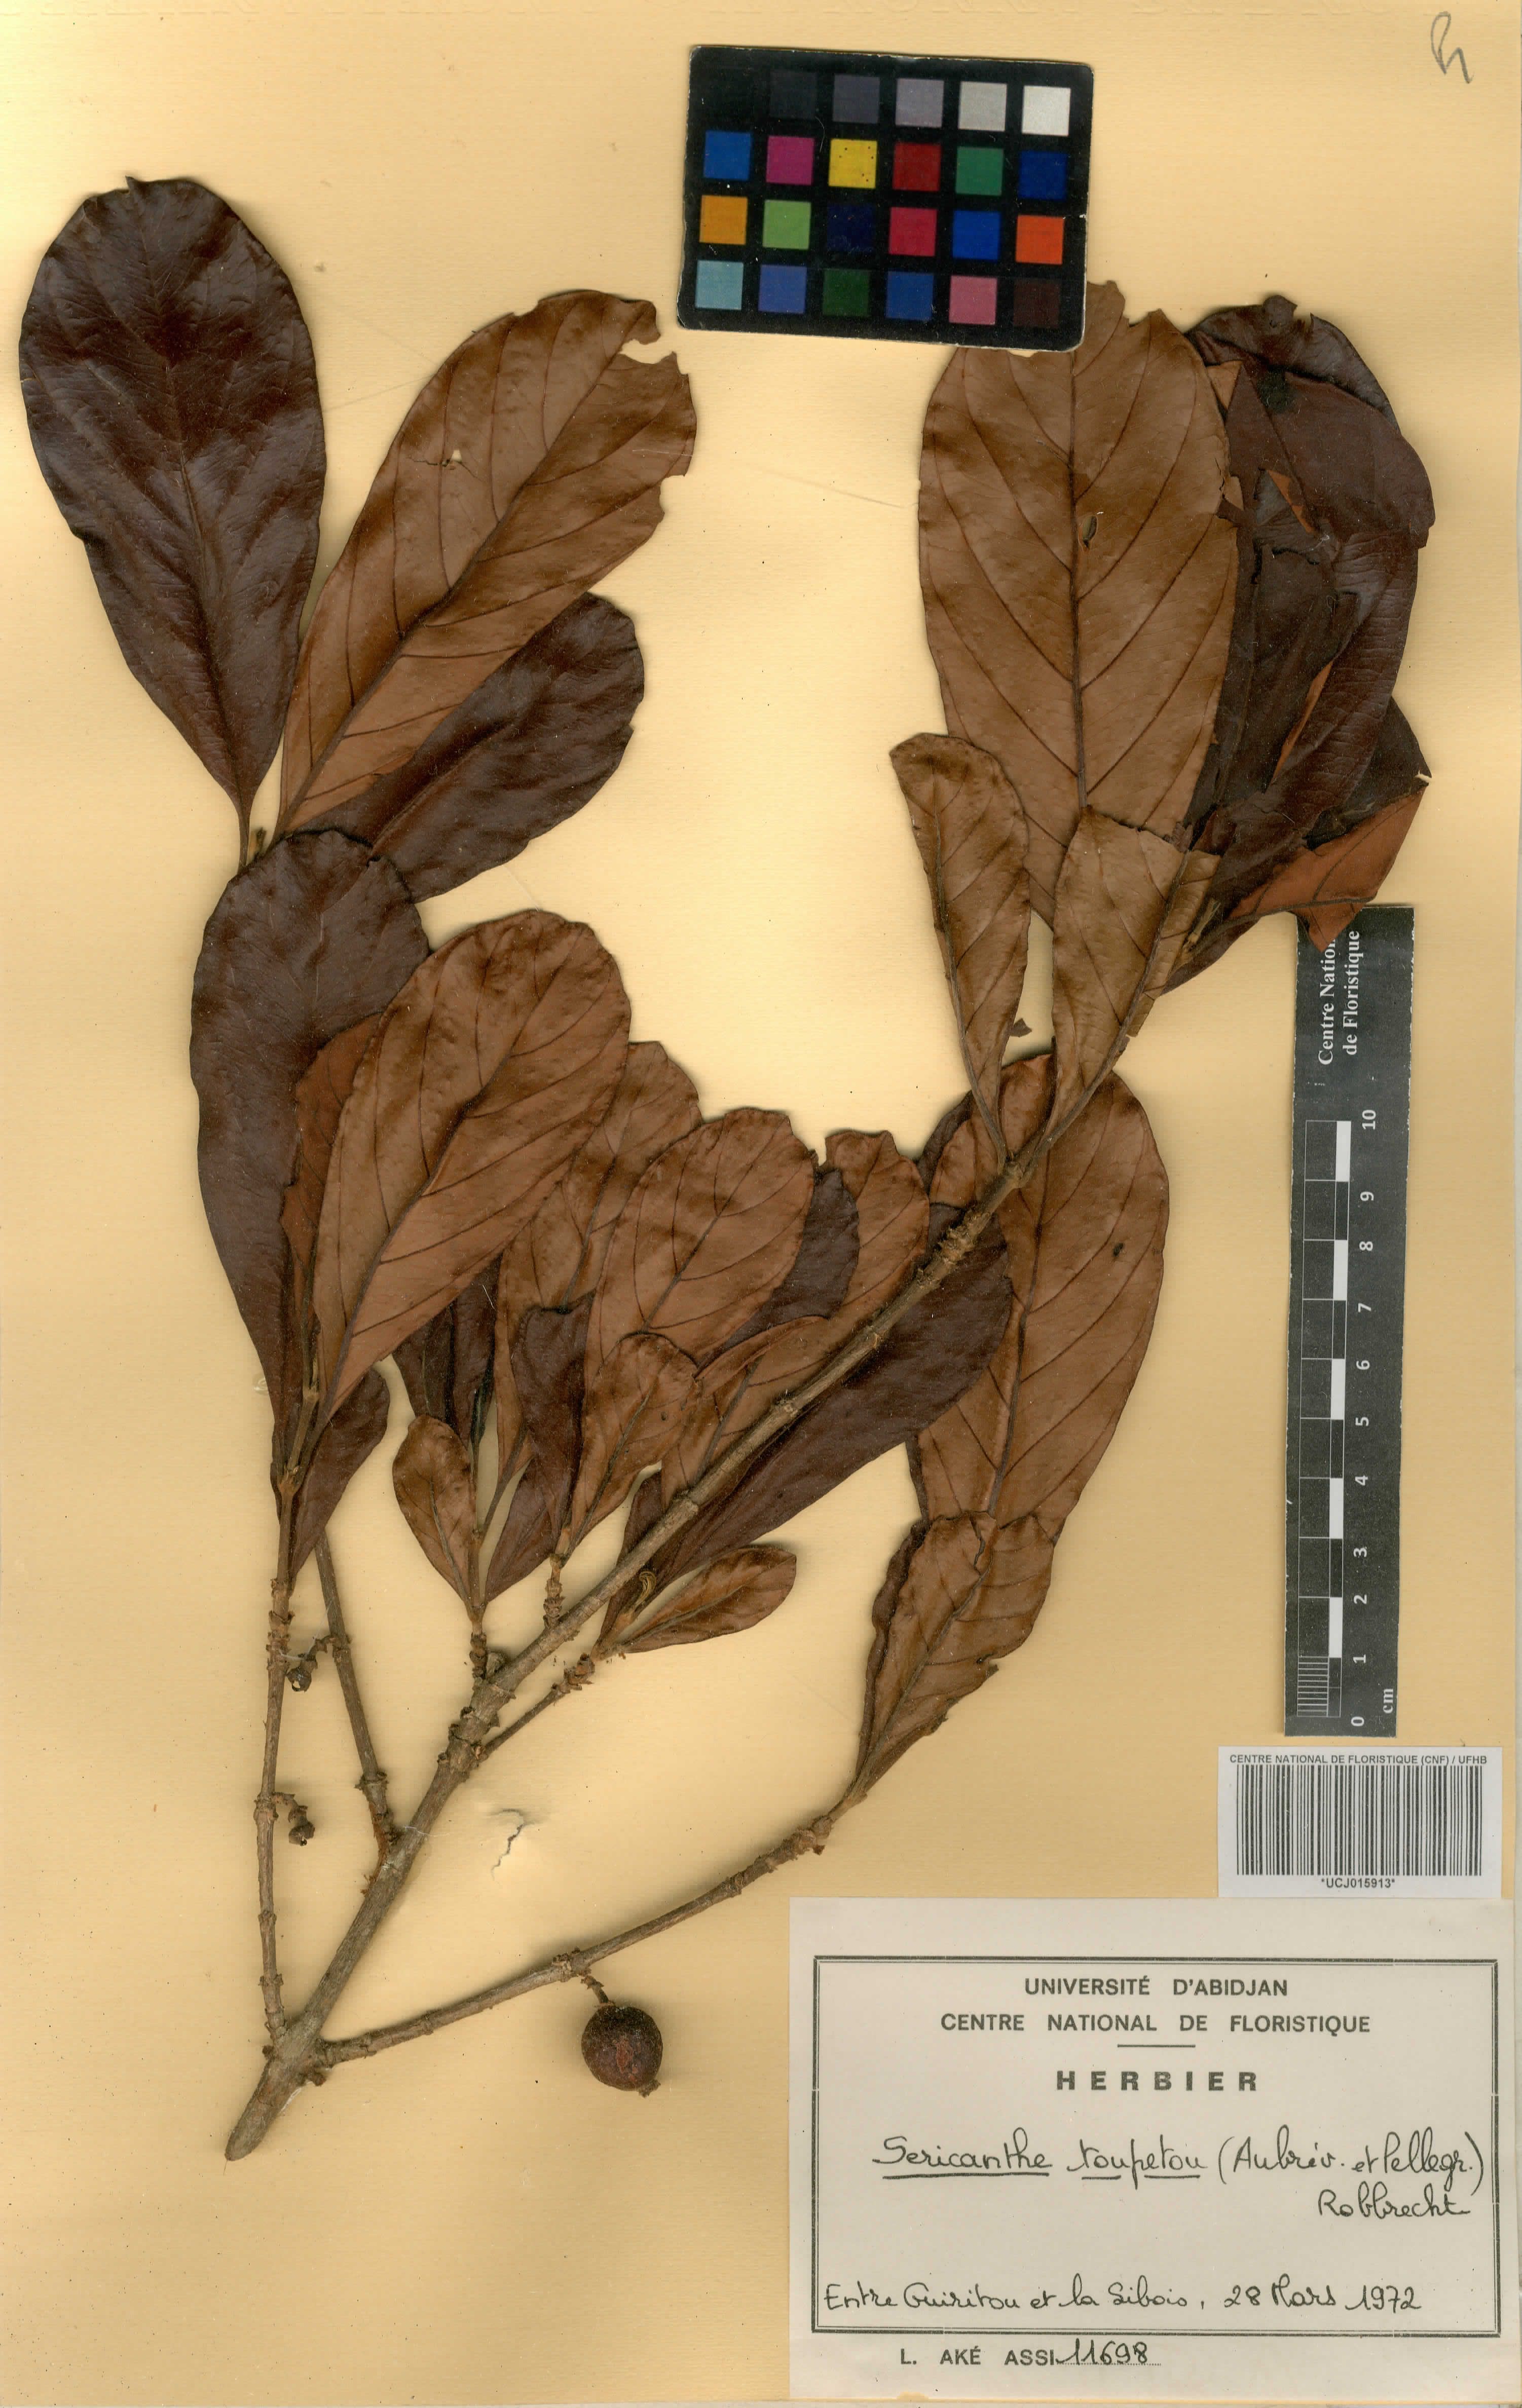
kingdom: Plantae
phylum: Tracheophyta
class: Magnoliopsida
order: Gentianales
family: Rubiaceae
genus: Sericanthe
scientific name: Sericanthe toupetou
